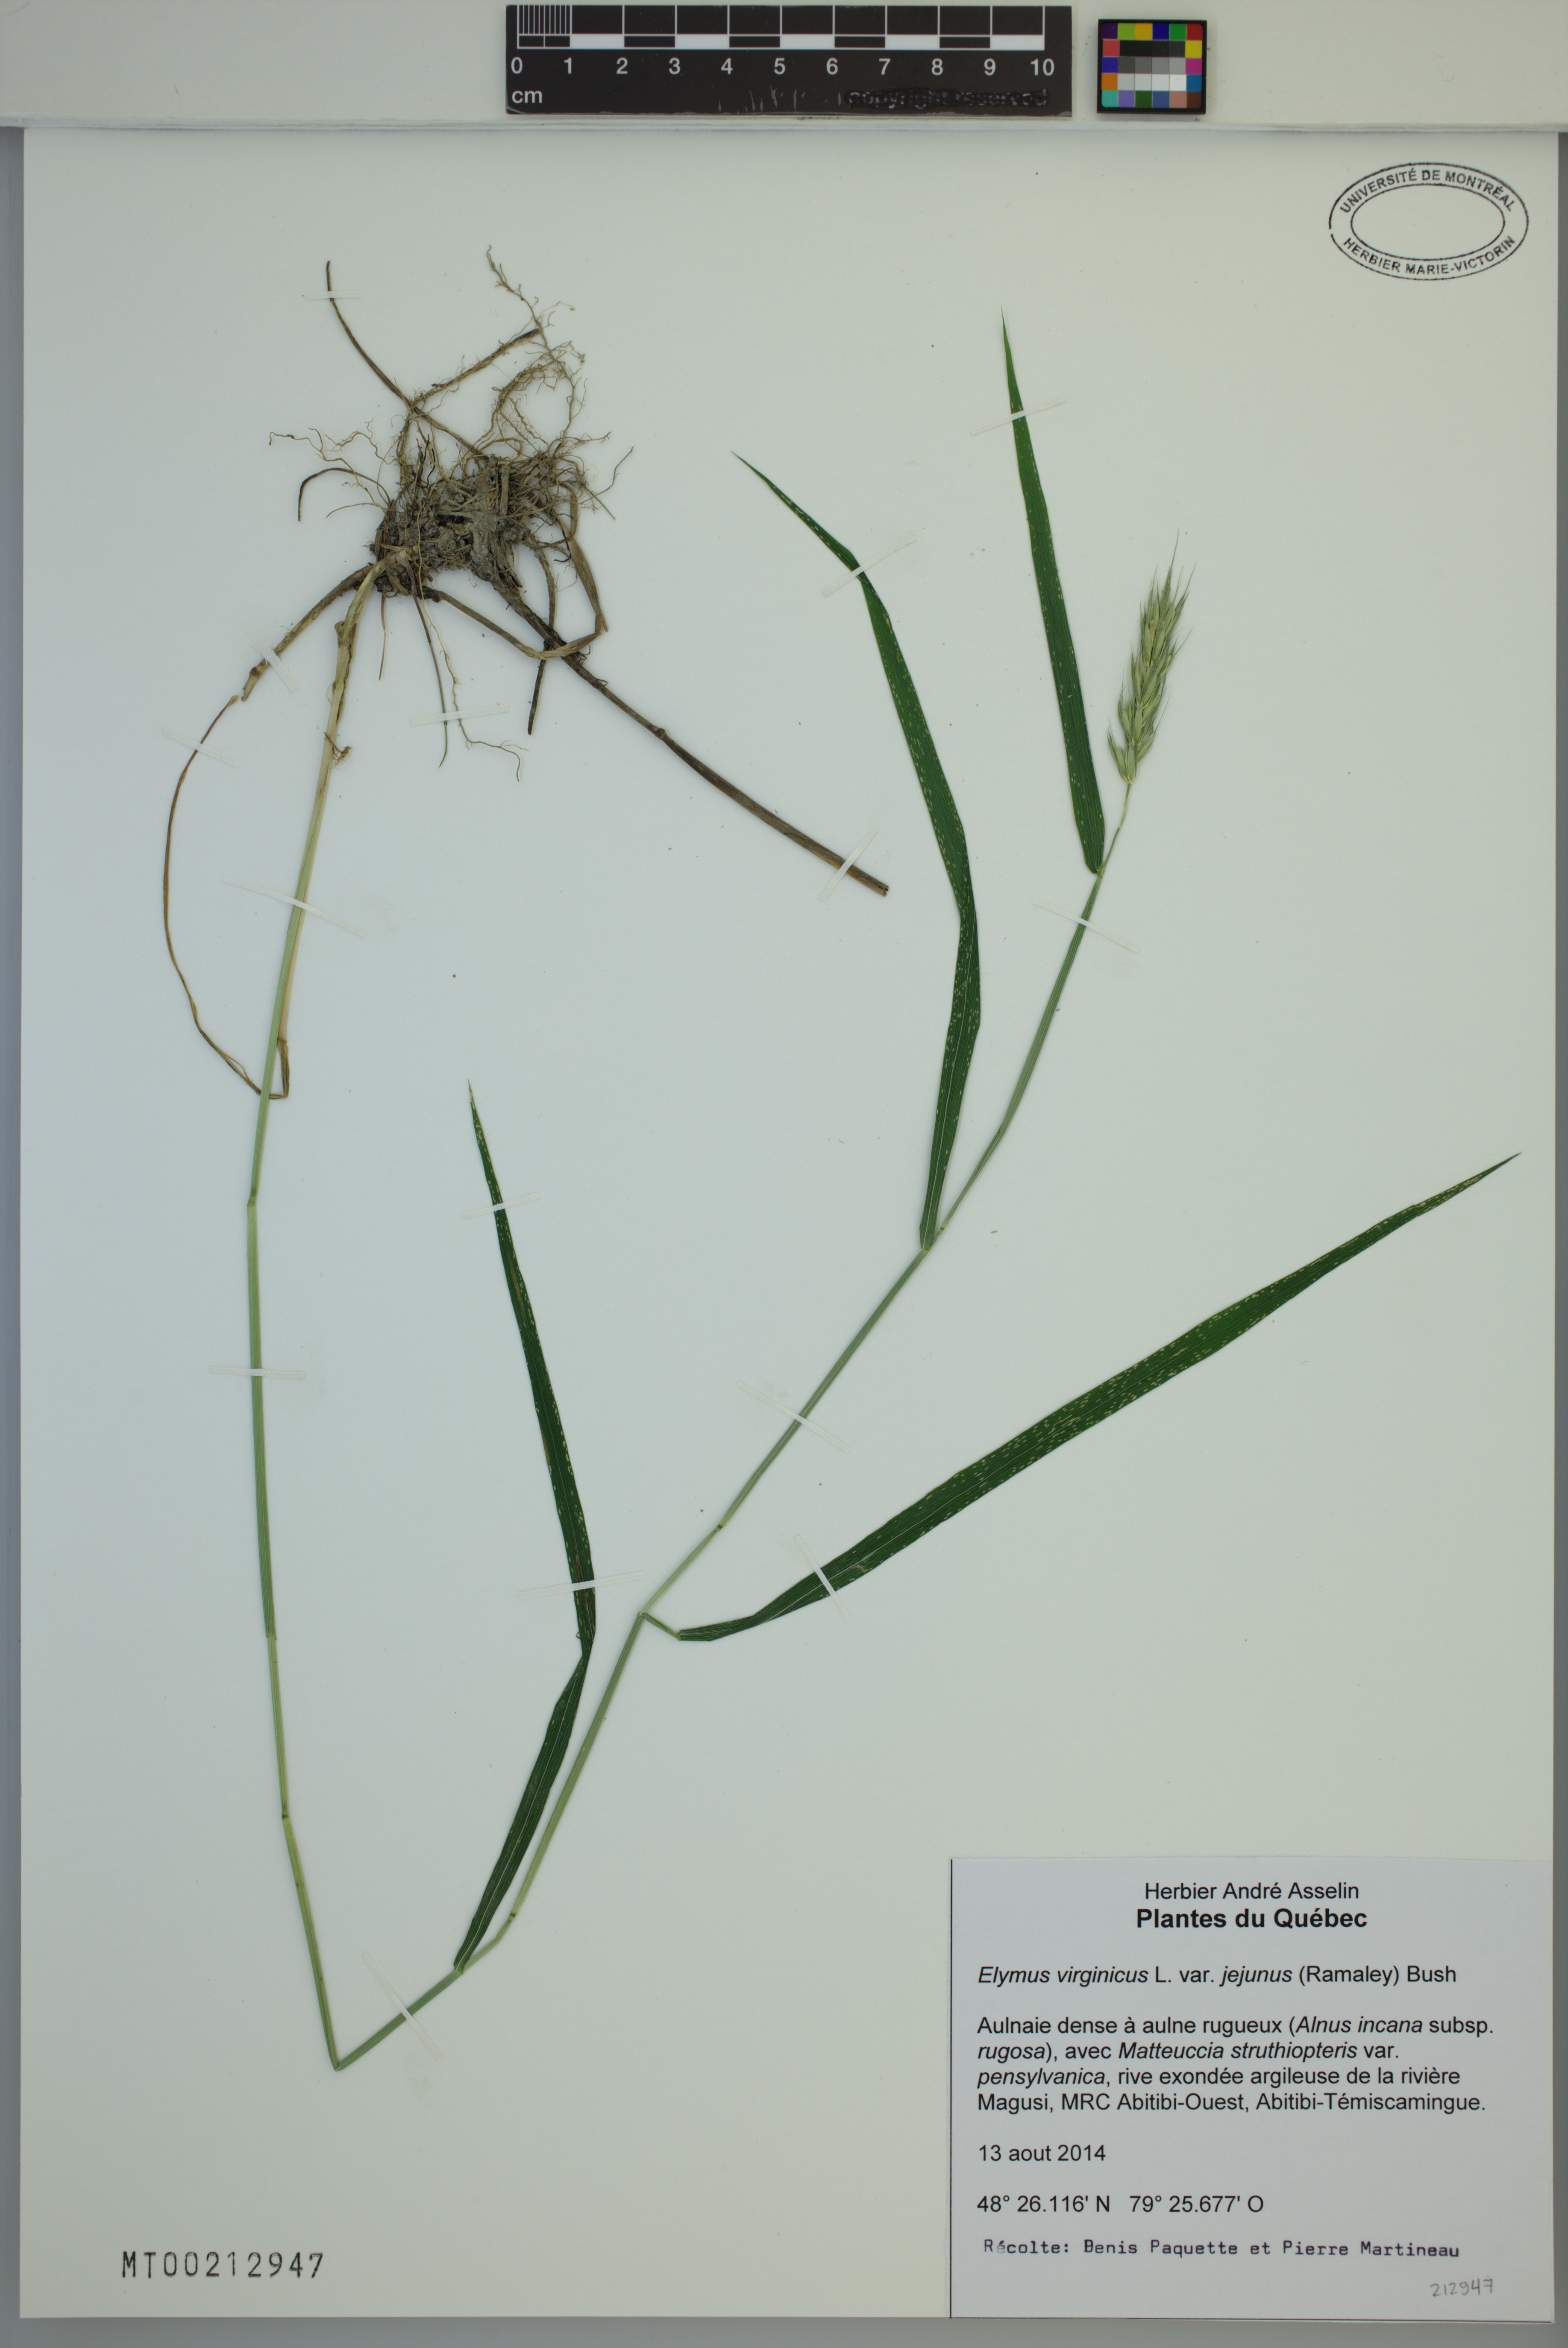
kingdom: Plantae
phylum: Tracheophyta
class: Liliopsida
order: Poales
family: Poaceae
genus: Elymus
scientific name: Elymus virginicus
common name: Common eastern wildrye
